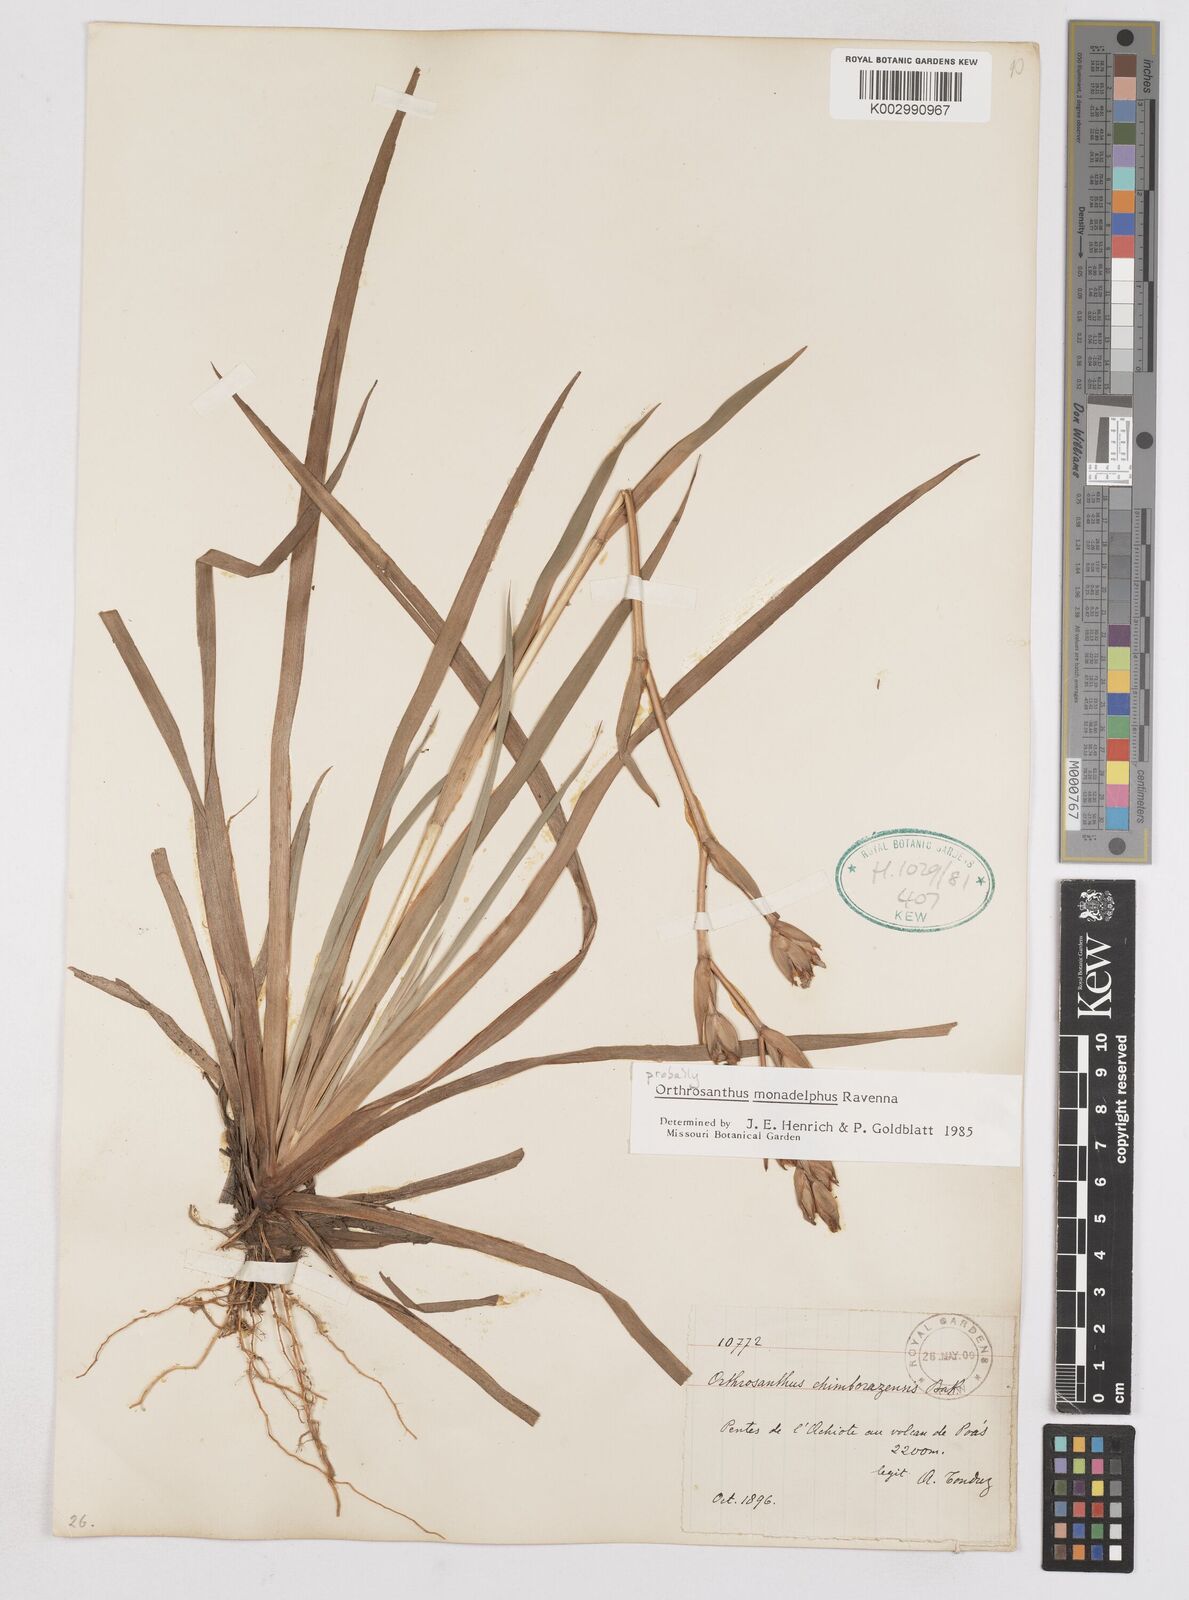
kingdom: Plantae
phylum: Tracheophyta
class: Liliopsida
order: Asparagales
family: Iridaceae
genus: Orthrosanthus
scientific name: Orthrosanthus monadelphus
